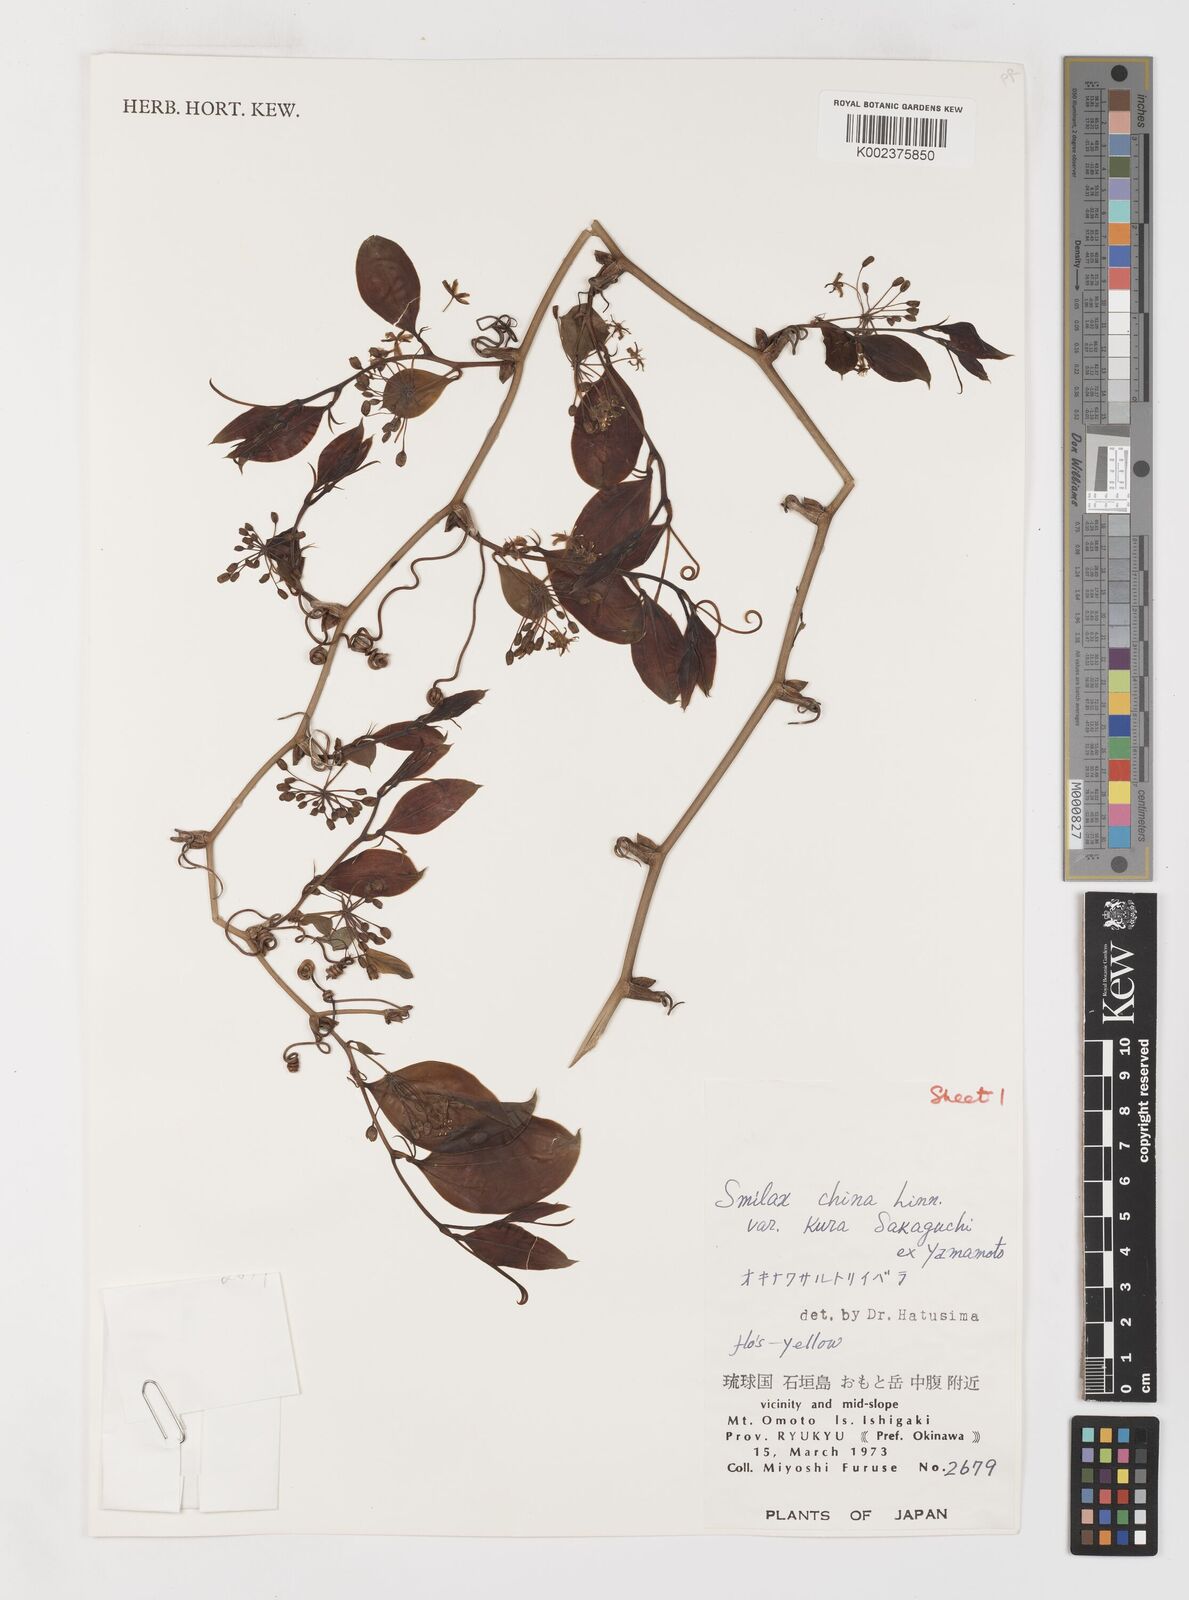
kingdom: Plantae
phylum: Tracheophyta
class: Liliopsida
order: Liliales
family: Smilacaceae
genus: Smilax
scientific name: Smilax china
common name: Chinaroot
